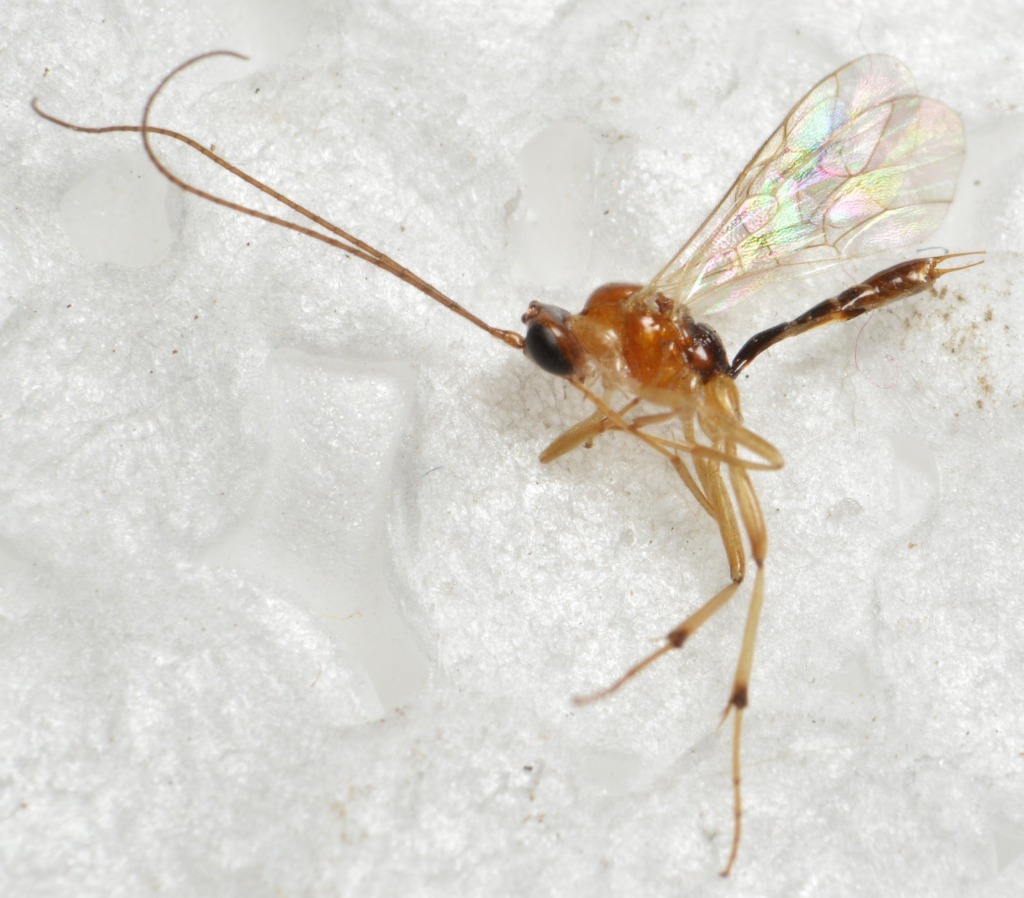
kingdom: Animalia
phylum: Arthropoda
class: Insecta
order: Hymenoptera
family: Ichneumonidae
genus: Mesochorus
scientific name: Mesochorus rufoniger
